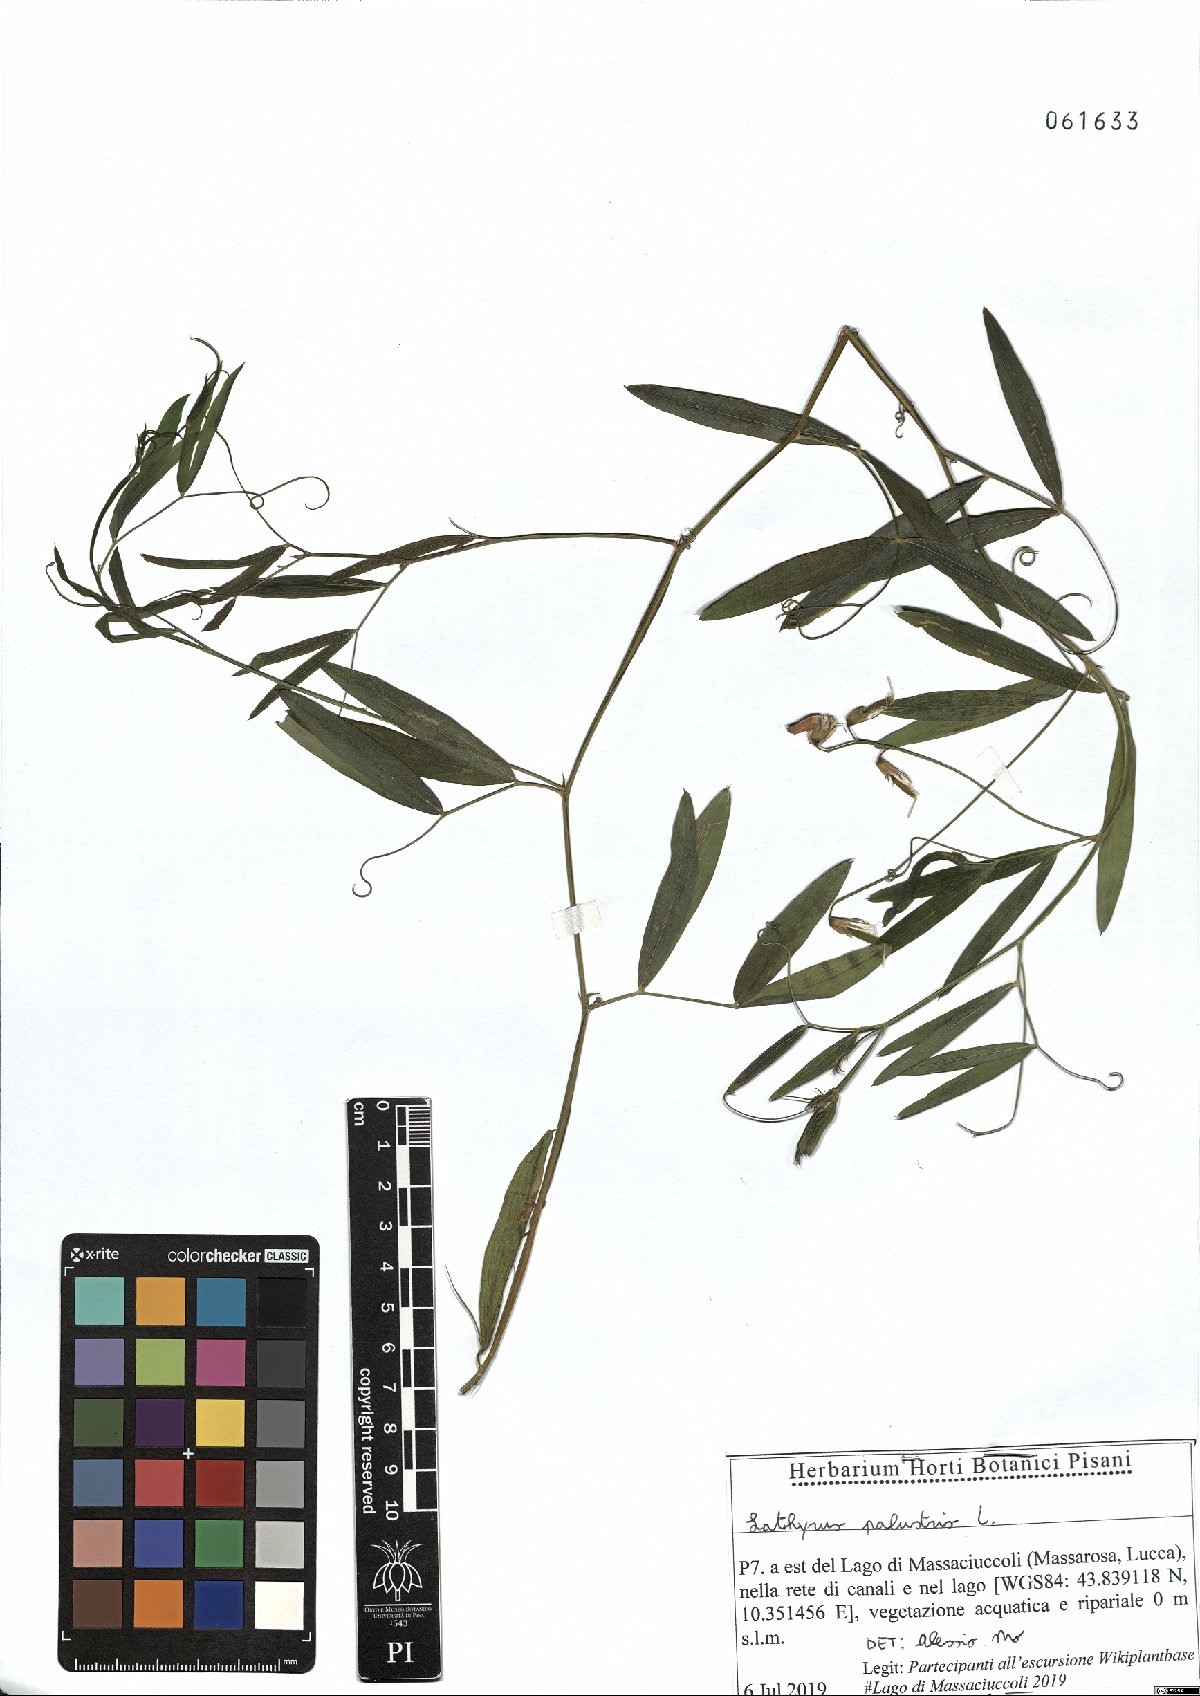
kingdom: Plantae
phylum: Tracheophyta
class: Magnoliopsida
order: Fabales
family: Fabaceae
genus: Lathyrus
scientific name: Lathyrus palustris
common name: Marsh pea
